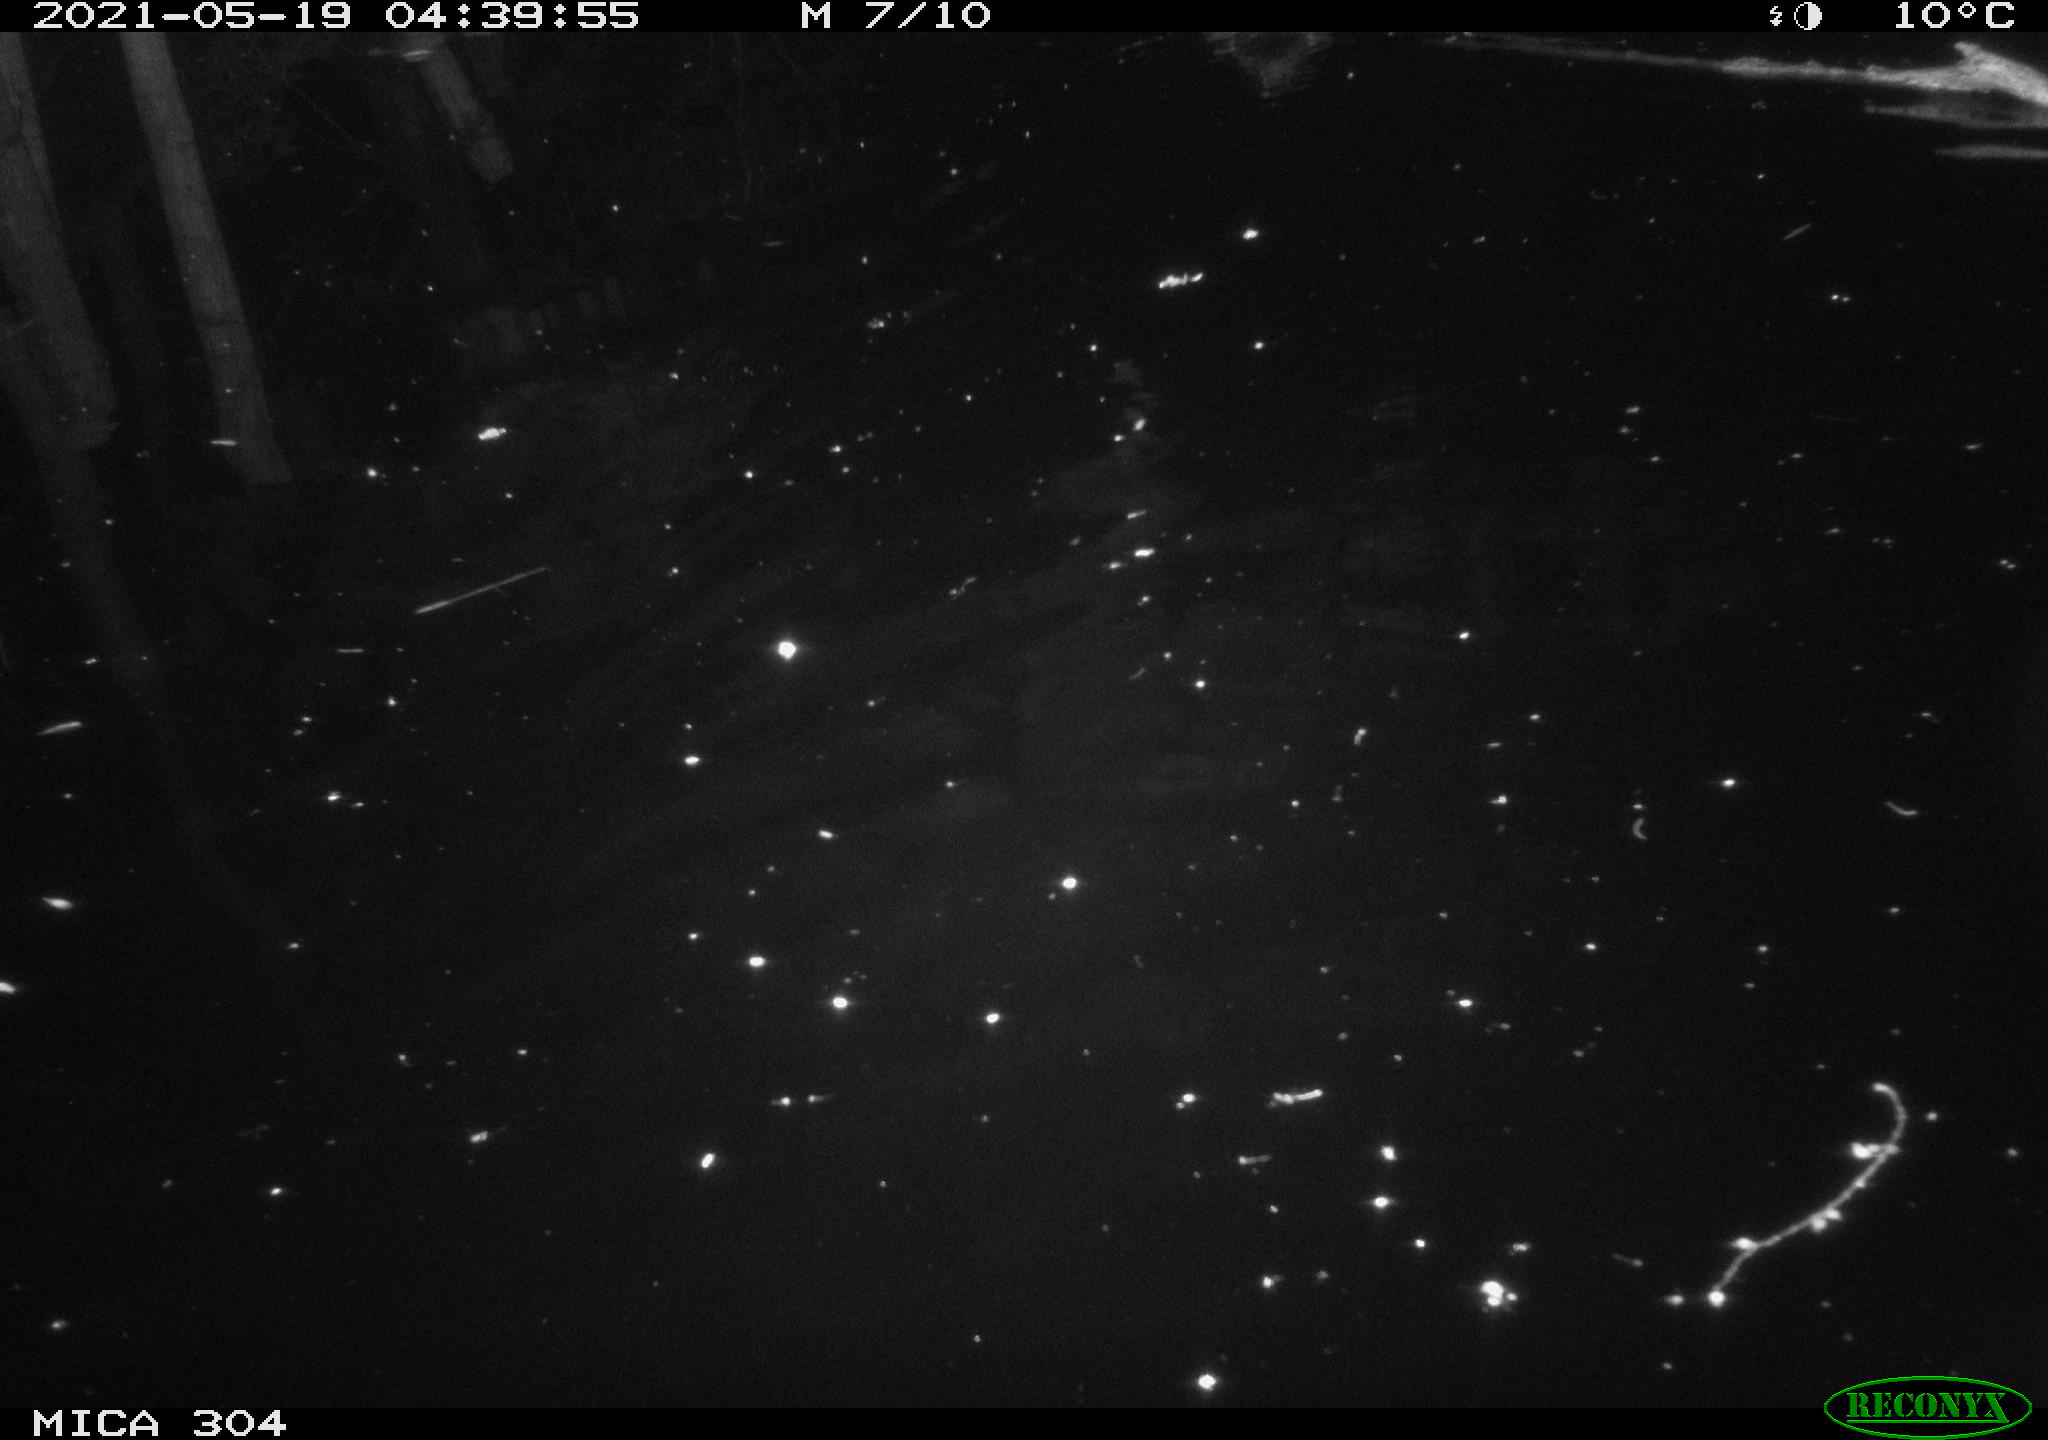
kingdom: Animalia
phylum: Chordata
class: Aves
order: Anseriformes
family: Anatidae
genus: Anas
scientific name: Anas platyrhynchos
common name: Mallard
